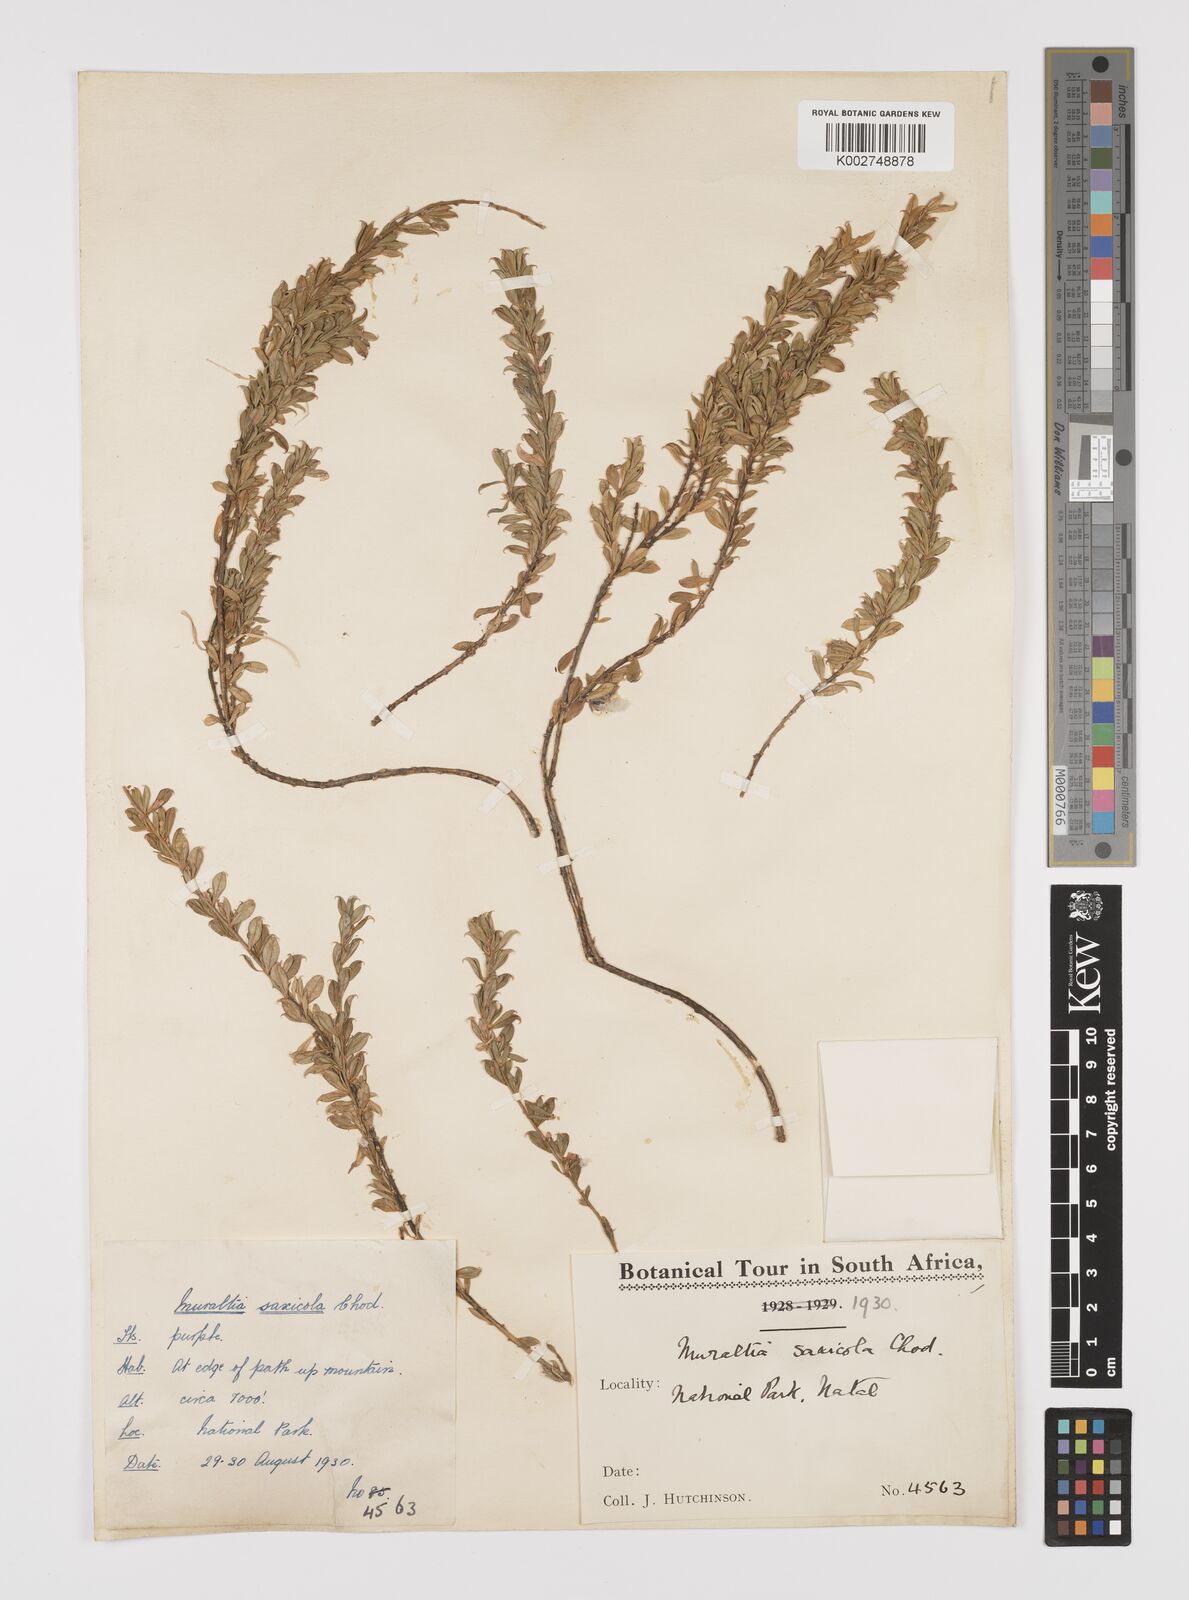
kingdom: Plantae
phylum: Tracheophyta
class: Magnoliopsida
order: Fabales
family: Polygalaceae
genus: Muraltia
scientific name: Muraltia saxicola
